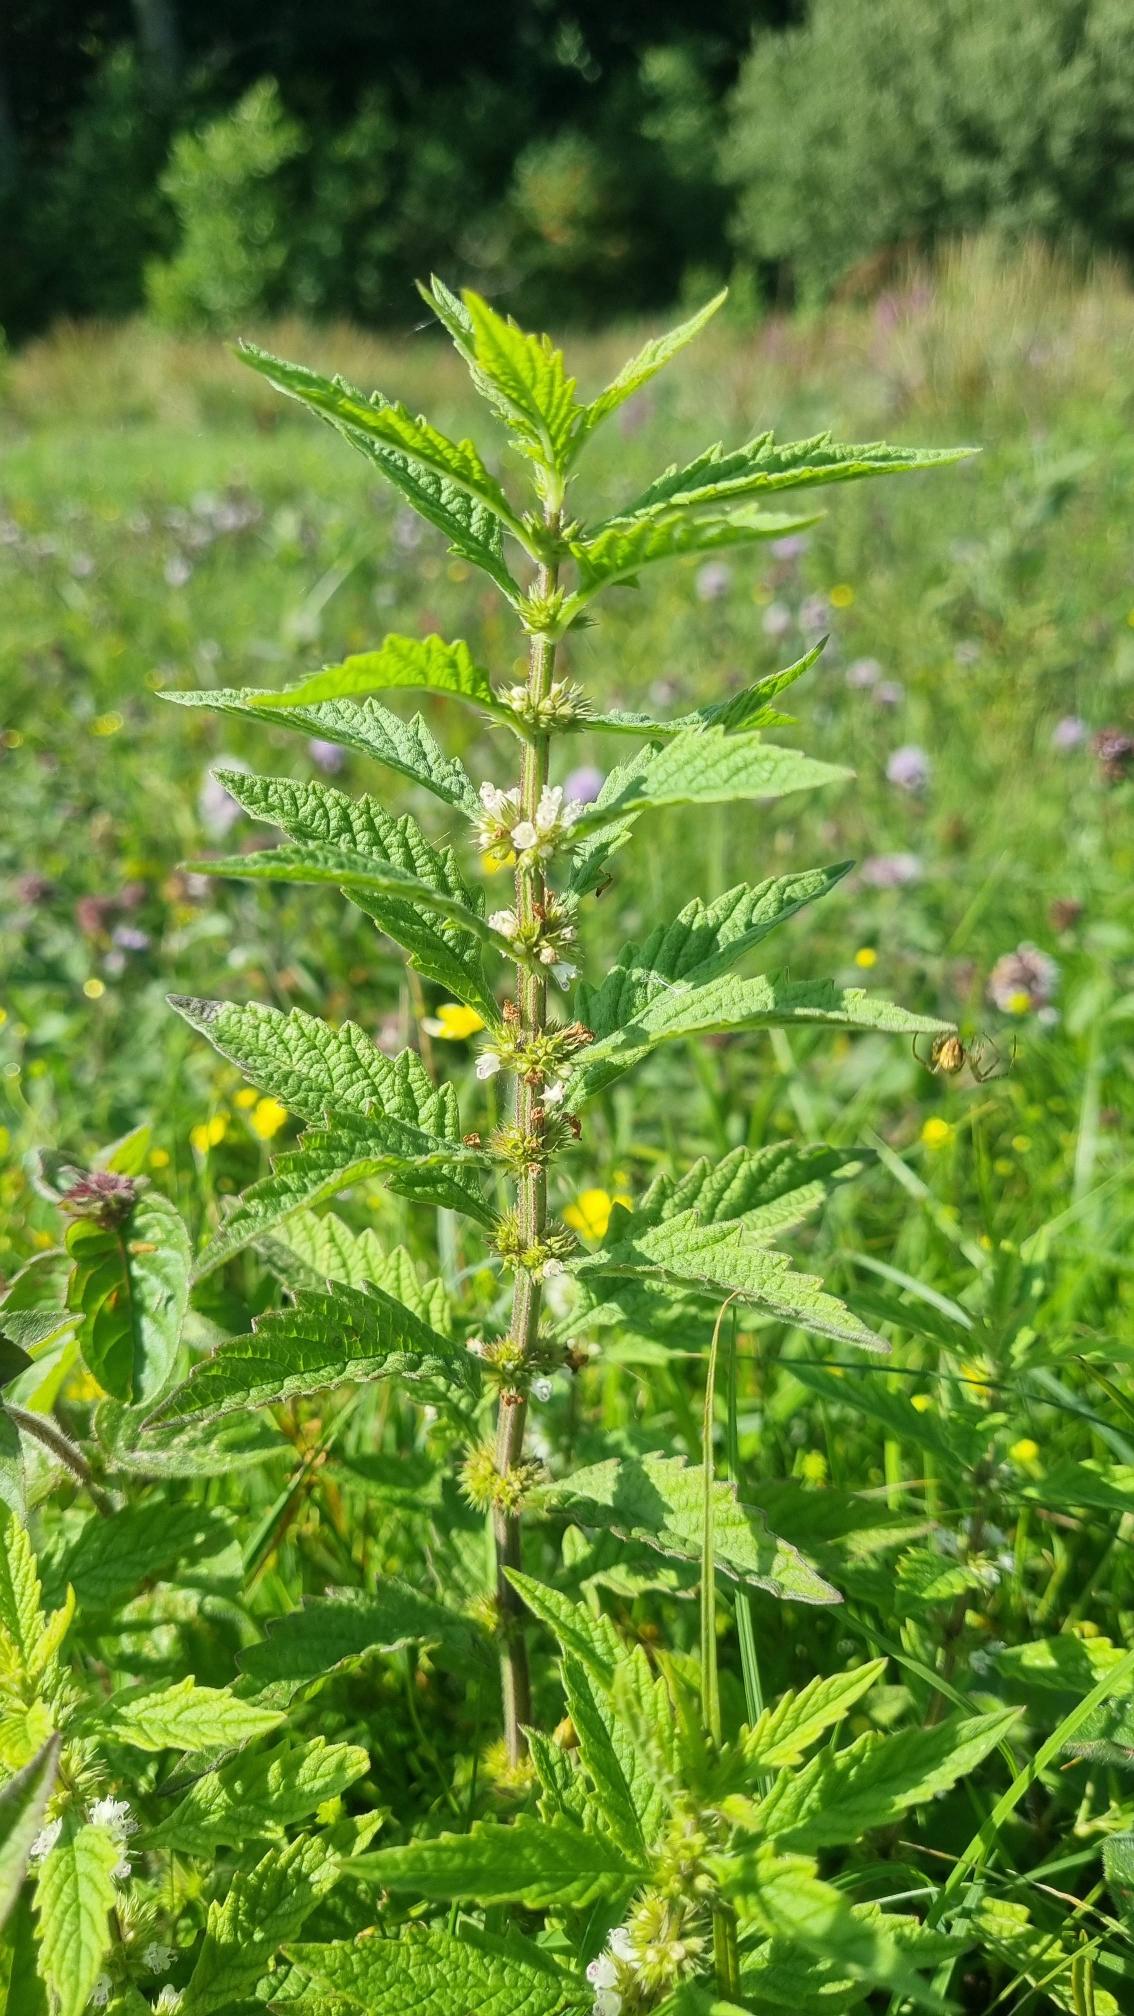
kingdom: Plantae
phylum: Tracheophyta
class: Magnoliopsida
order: Lamiales
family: Lamiaceae
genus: Lycopus
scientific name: Lycopus europaeus
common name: Sværtevæld
